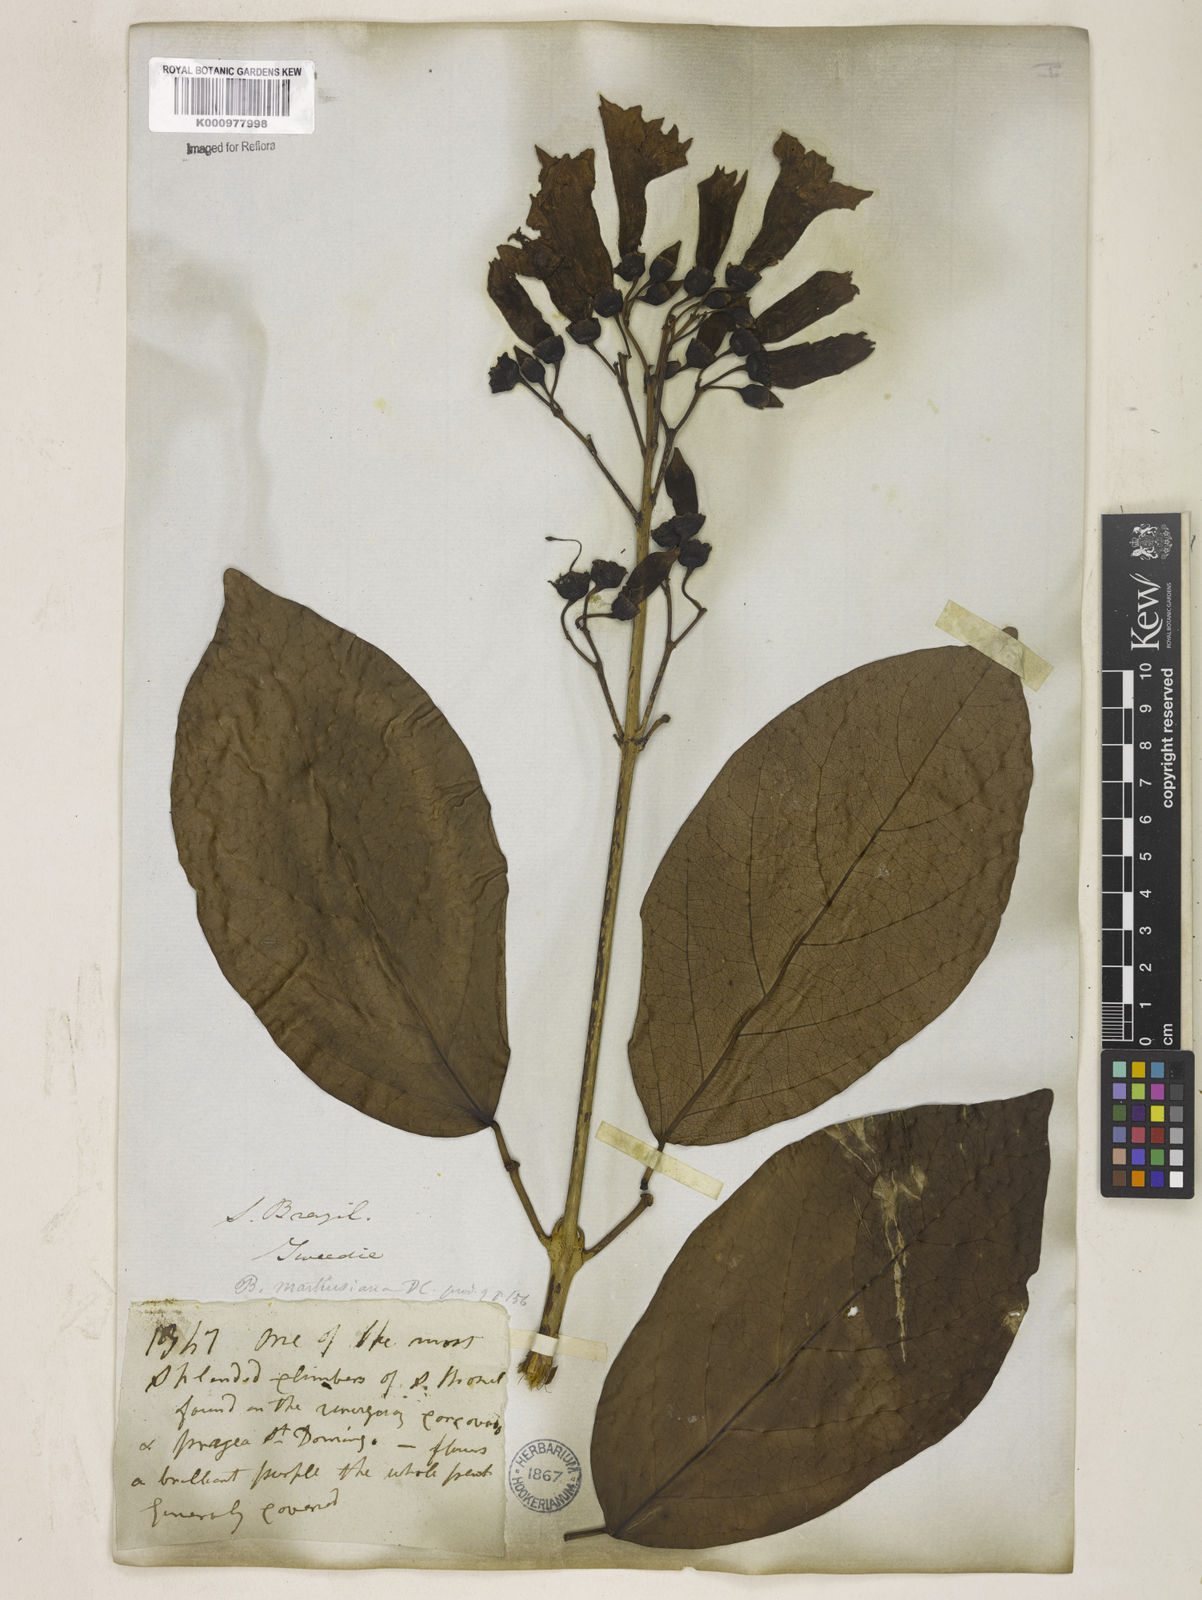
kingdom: Plantae
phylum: Tracheophyta
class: Magnoliopsida
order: Lamiales
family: Bignoniaceae
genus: Tanaecium
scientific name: Tanaecium pyramidatum
